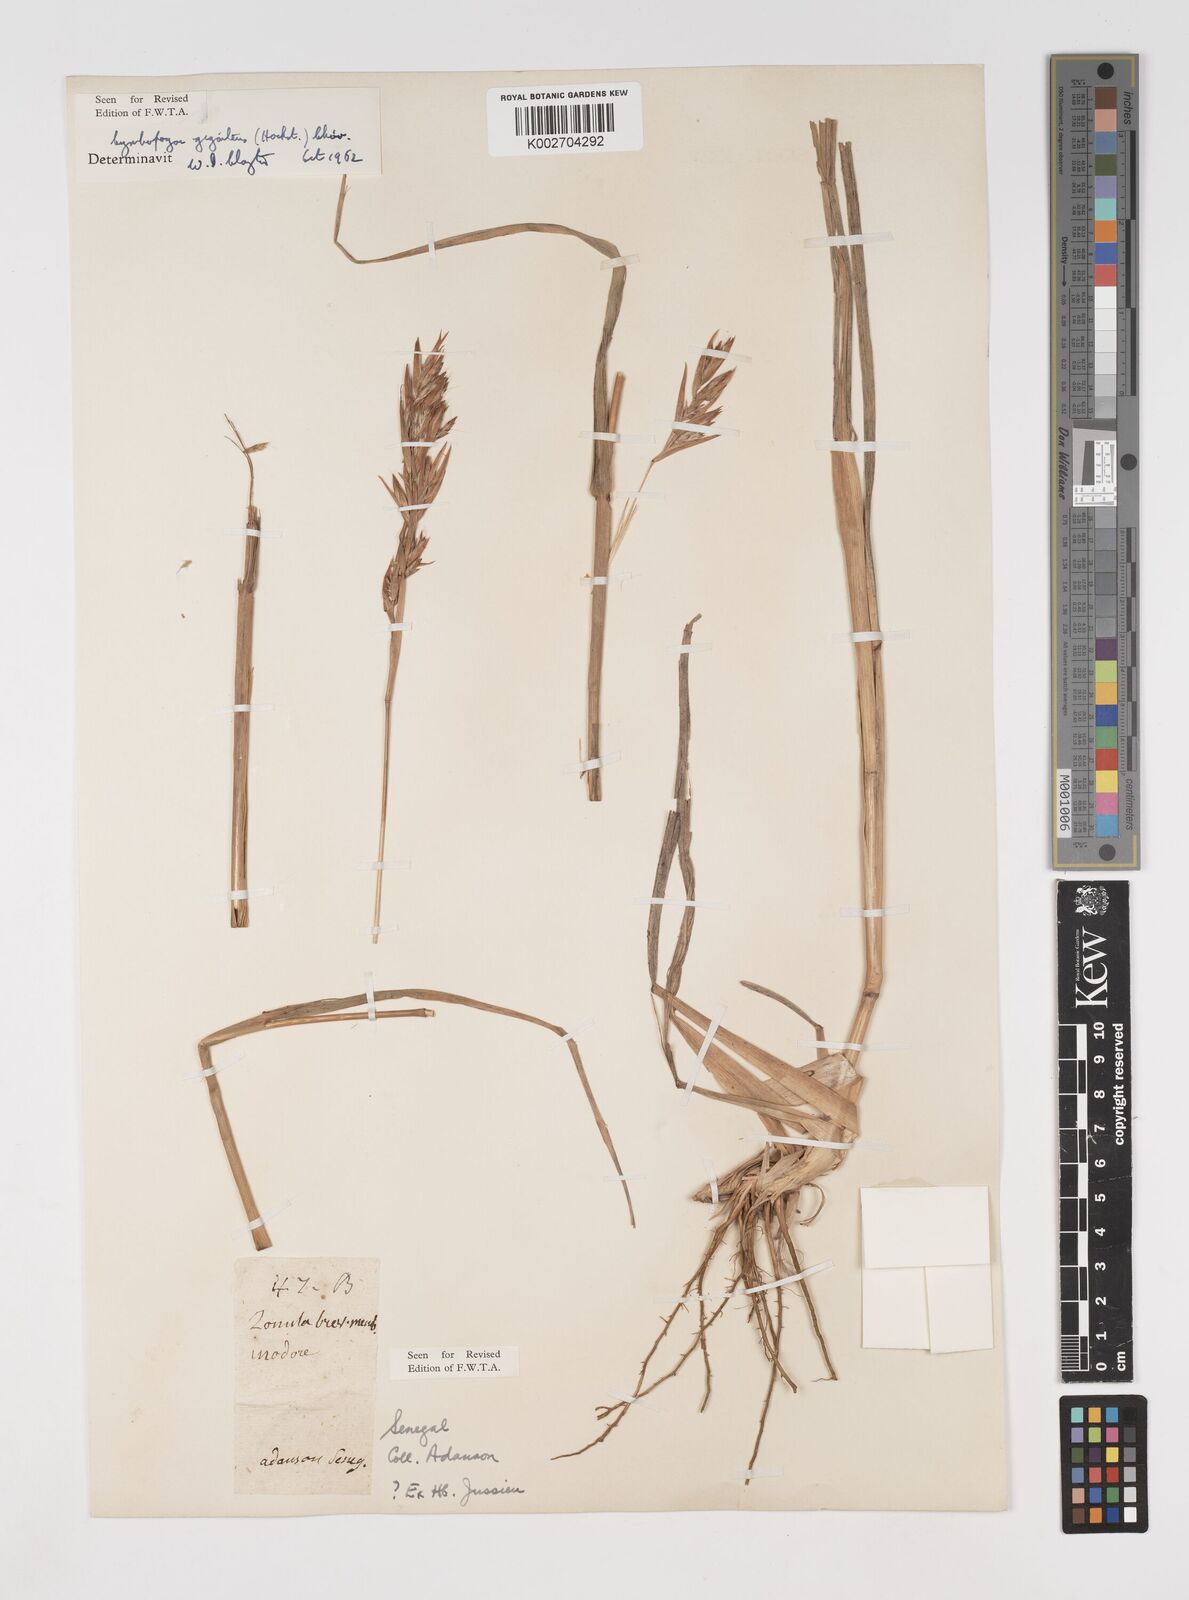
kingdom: Plantae
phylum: Tracheophyta
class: Liliopsida
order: Poales
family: Poaceae
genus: Cymbopogon
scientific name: Cymbopogon giganteus
